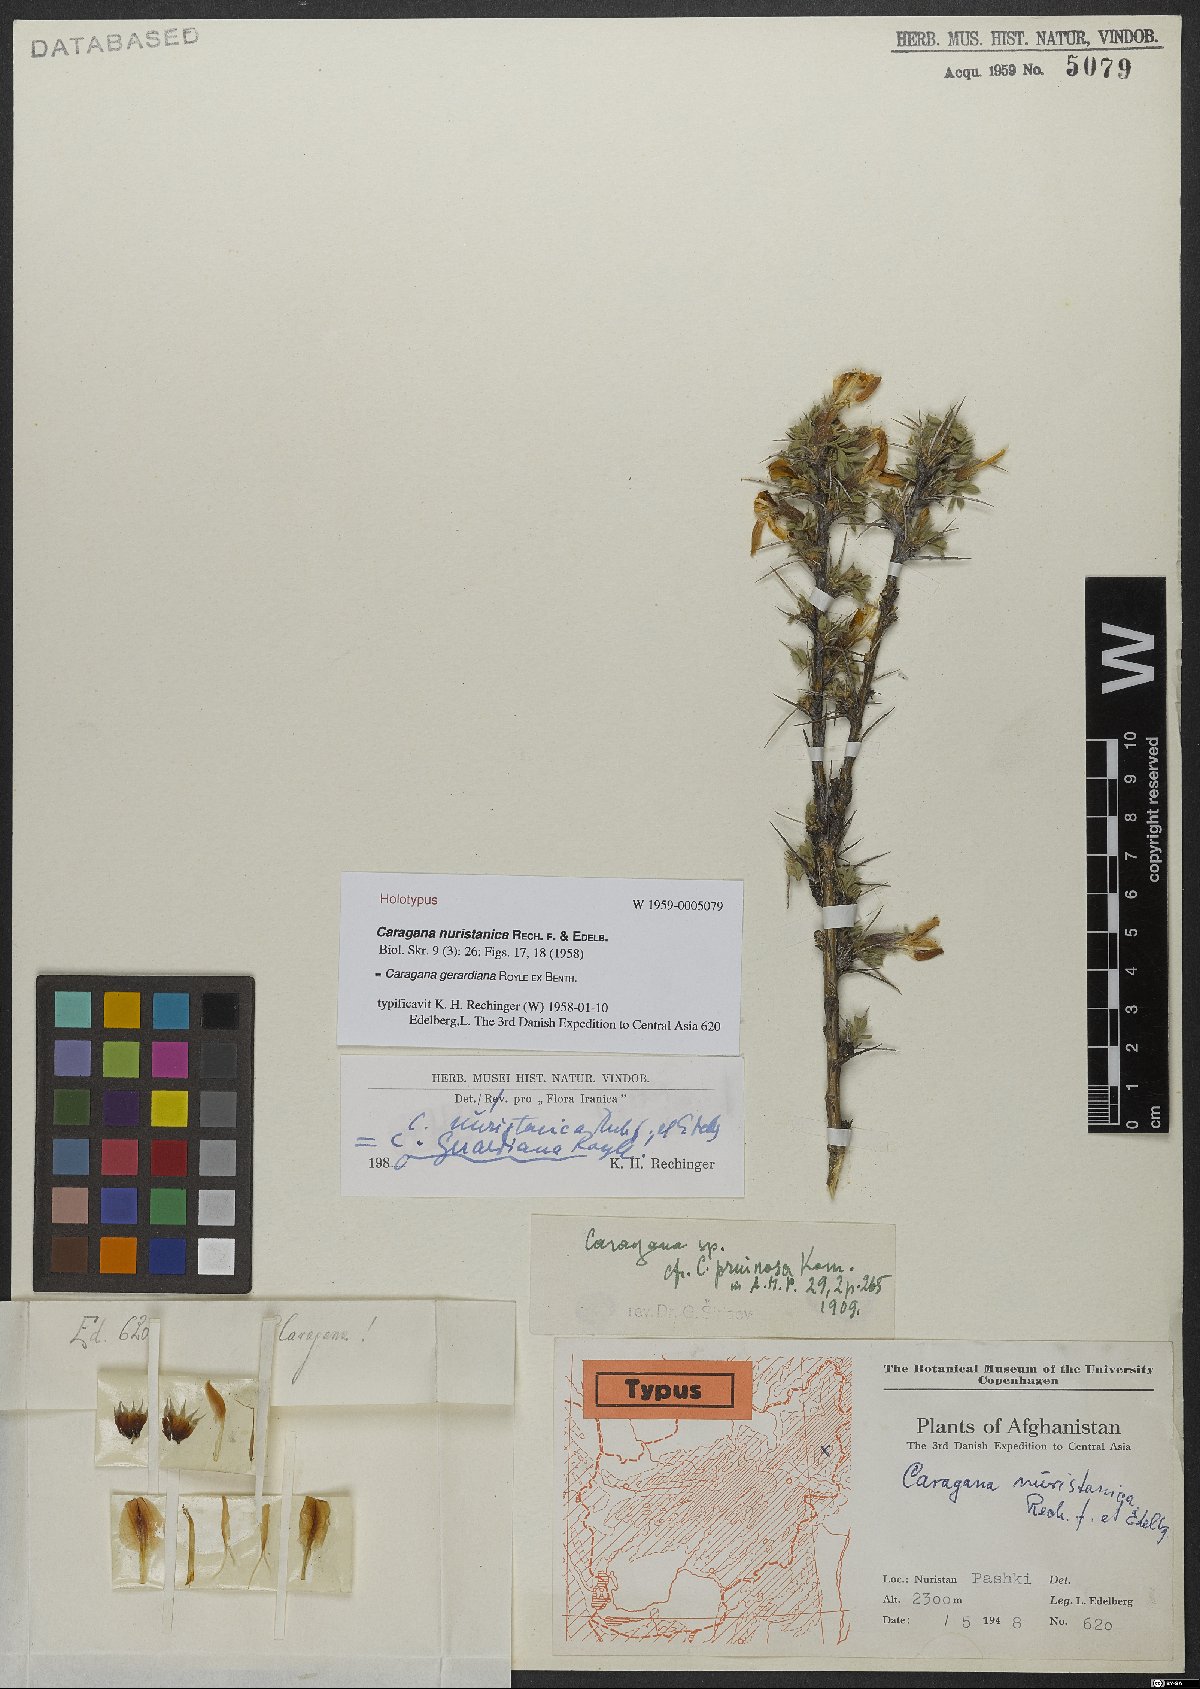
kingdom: Plantae
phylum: Tracheophyta
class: Magnoliopsida
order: Fabales
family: Fabaceae
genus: Caragana
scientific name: Caragana gerrardiana
